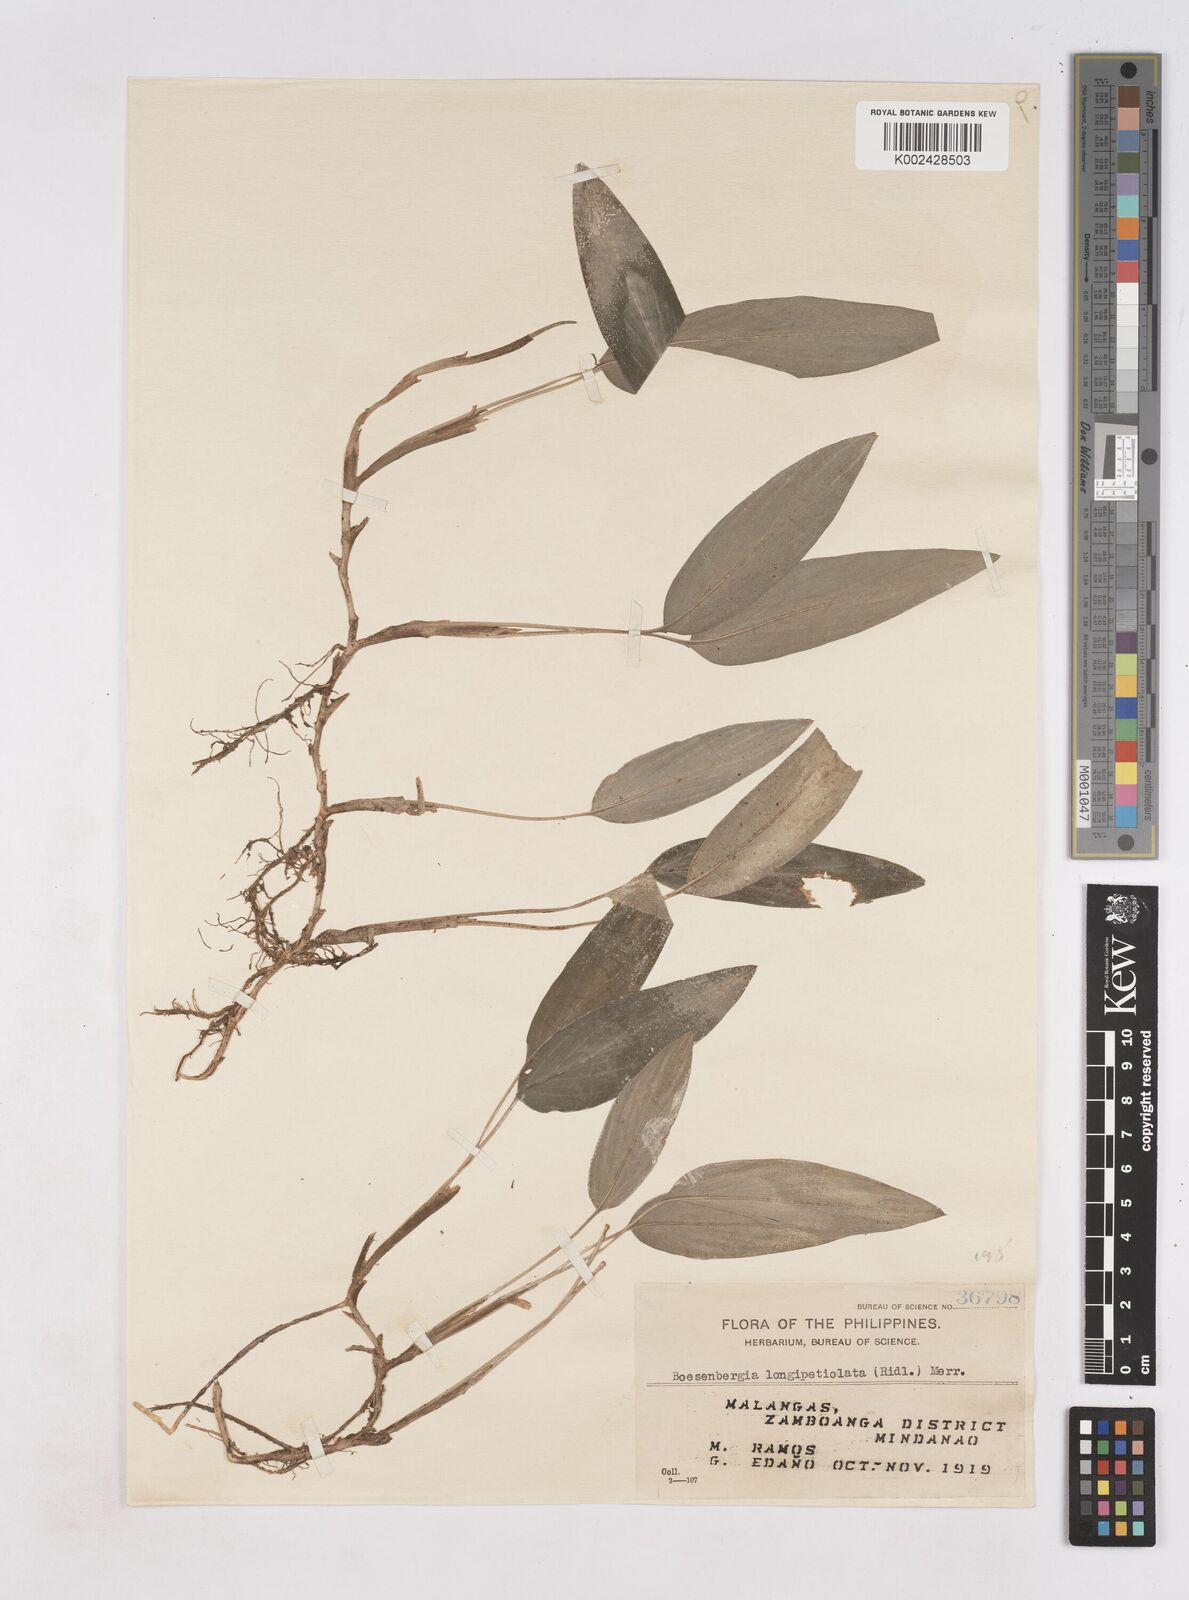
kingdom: Plantae
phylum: Tracheophyta
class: Liliopsida
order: Zingiberales
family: Zingiberaceae
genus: Boesenbergia
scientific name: Boesenbergia longipetiolata
